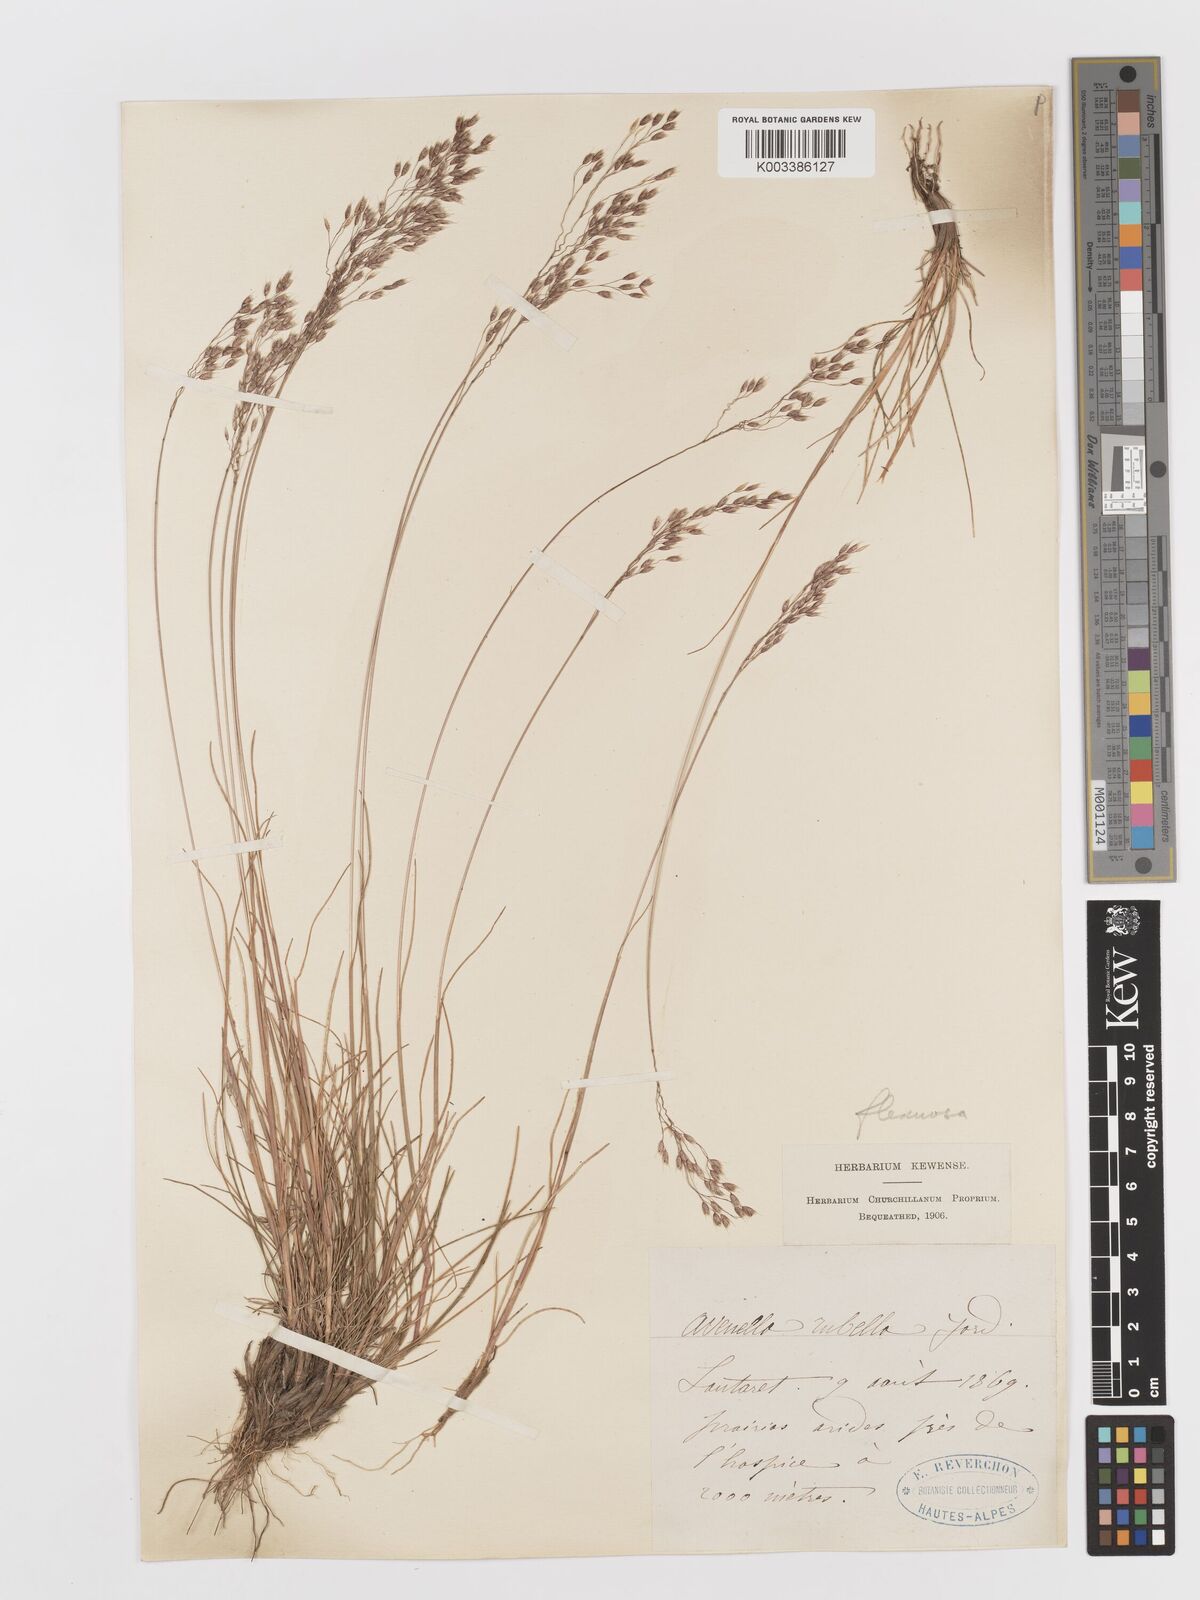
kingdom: Plantae
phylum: Tracheophyta
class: Liliopsida
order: Poales
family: Poaceae
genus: Avenella
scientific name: Avenella flexuosa
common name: Wavy hairgrass
